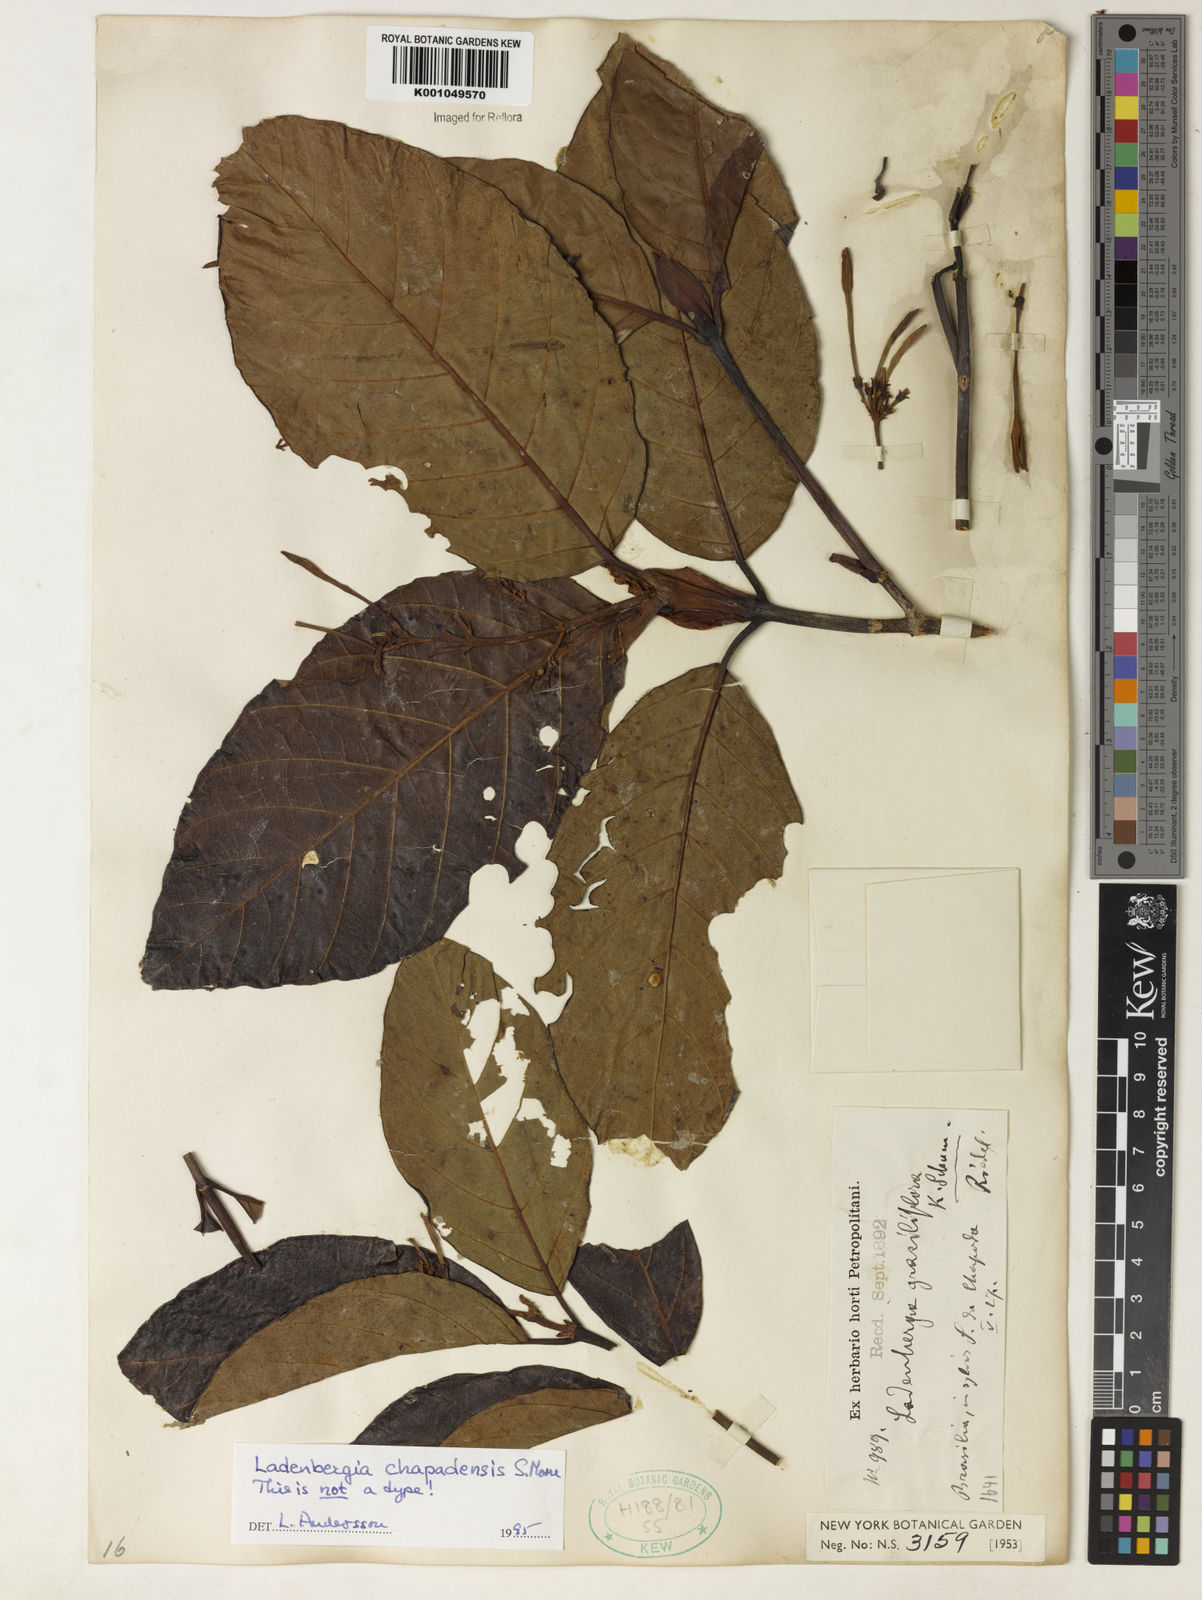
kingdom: Plantae
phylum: Tracheophyta
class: Magnoliopsida
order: Gentianales
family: Rubiaceae
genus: Ladenbergia
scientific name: Ladenbergia chapadensis
